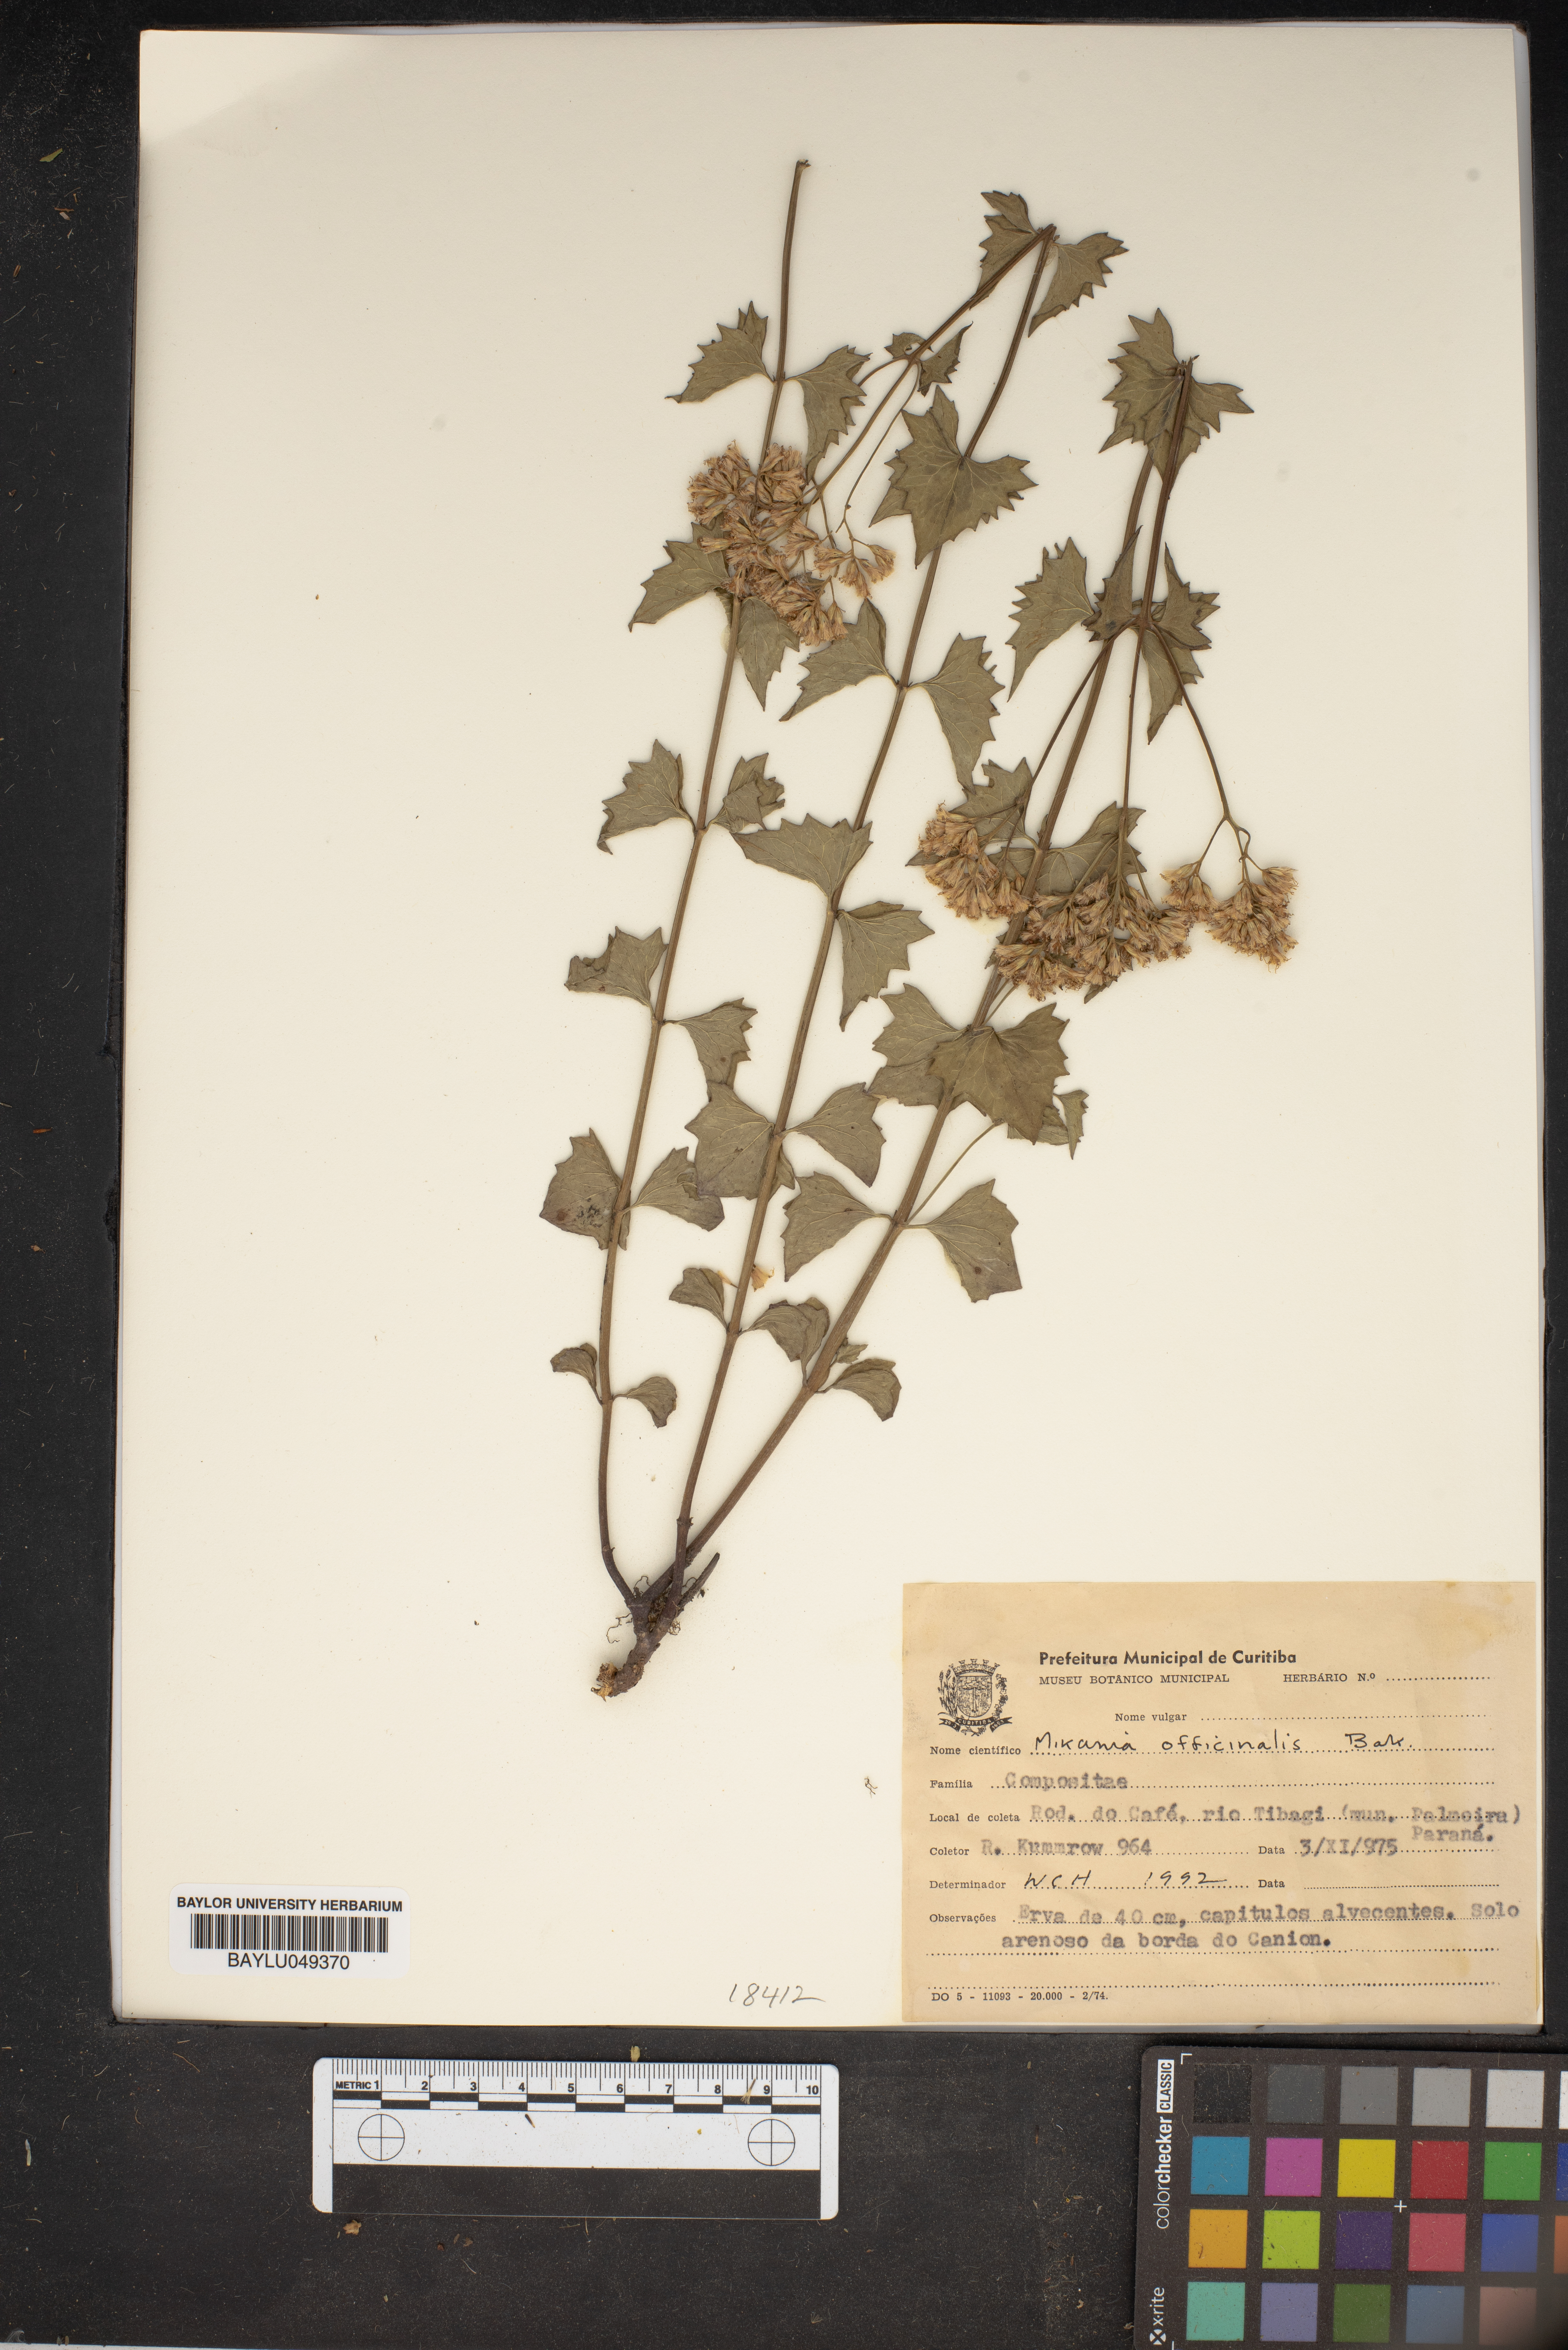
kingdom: Plantae
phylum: Tracheophyta
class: Magnoliopsida
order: Asterales
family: Asteraceae
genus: Mikania
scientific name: Mikania officinalis
